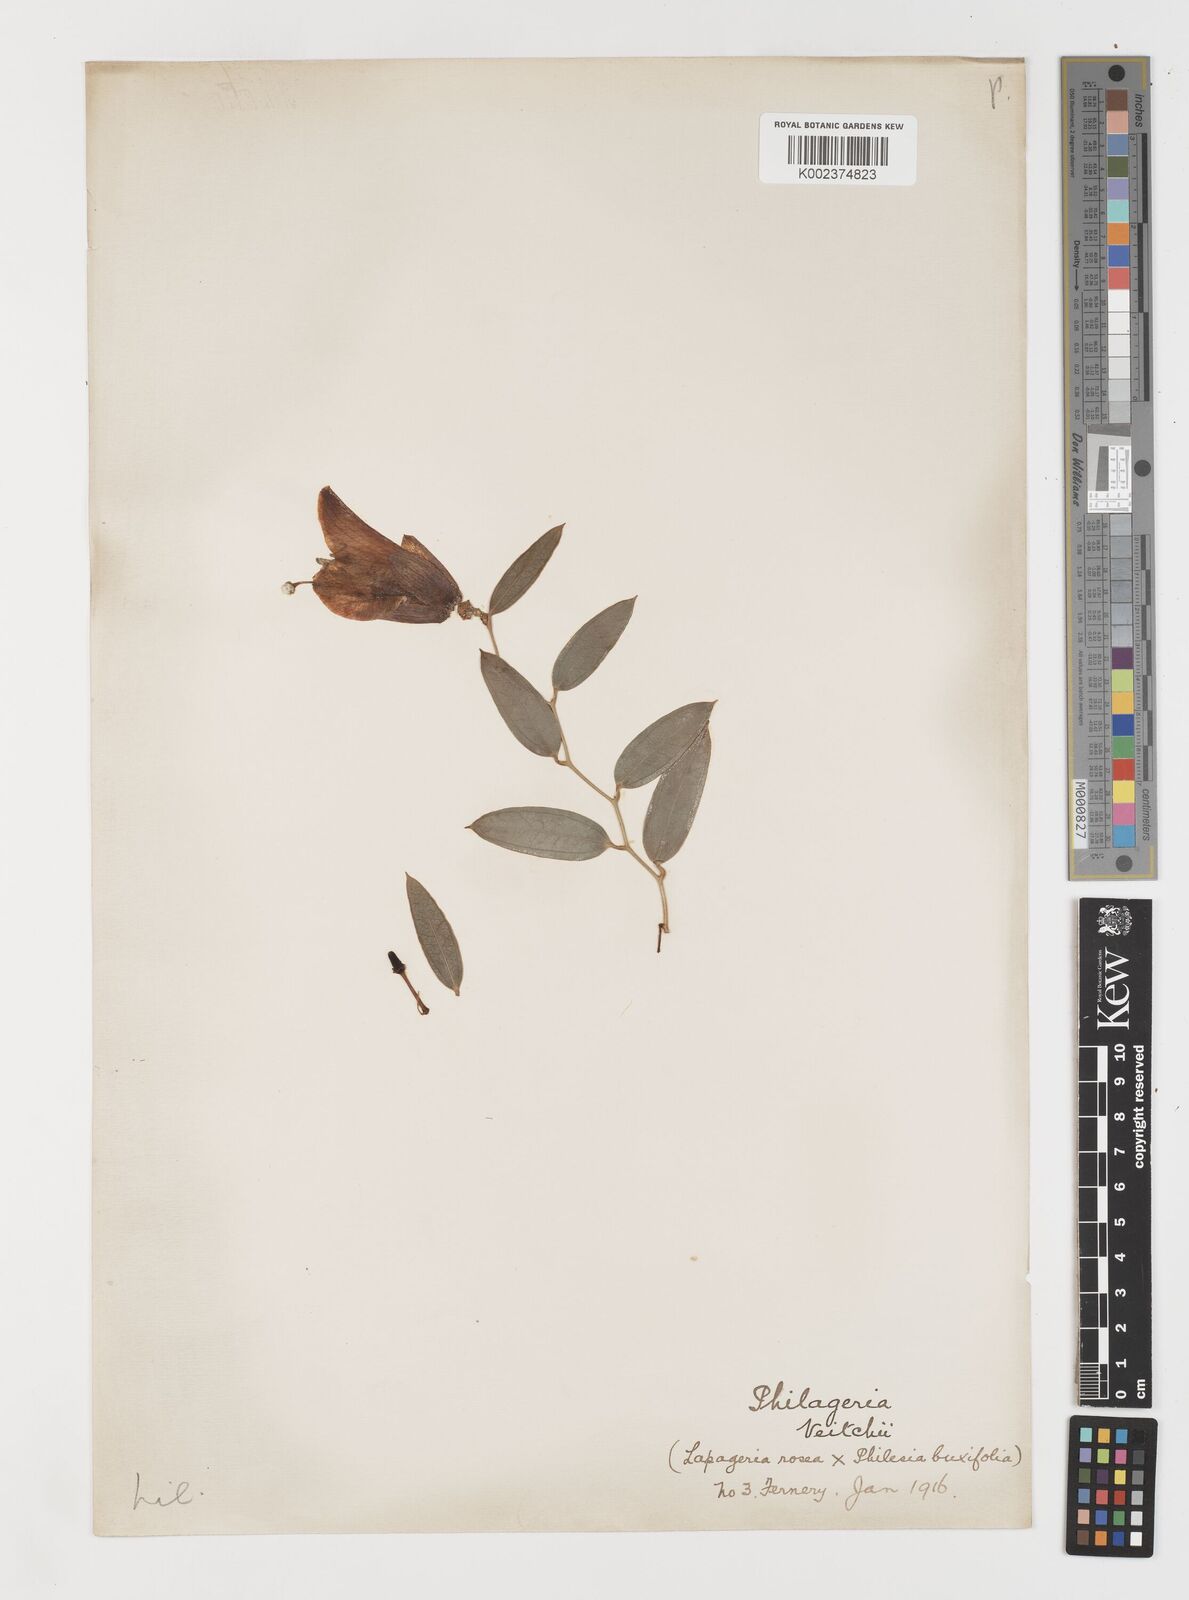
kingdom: Plantae
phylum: Tracheophyta
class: Liliopsida
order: Liliales
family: Philesiaceae
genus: Philageria
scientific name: Philageria veitchii
